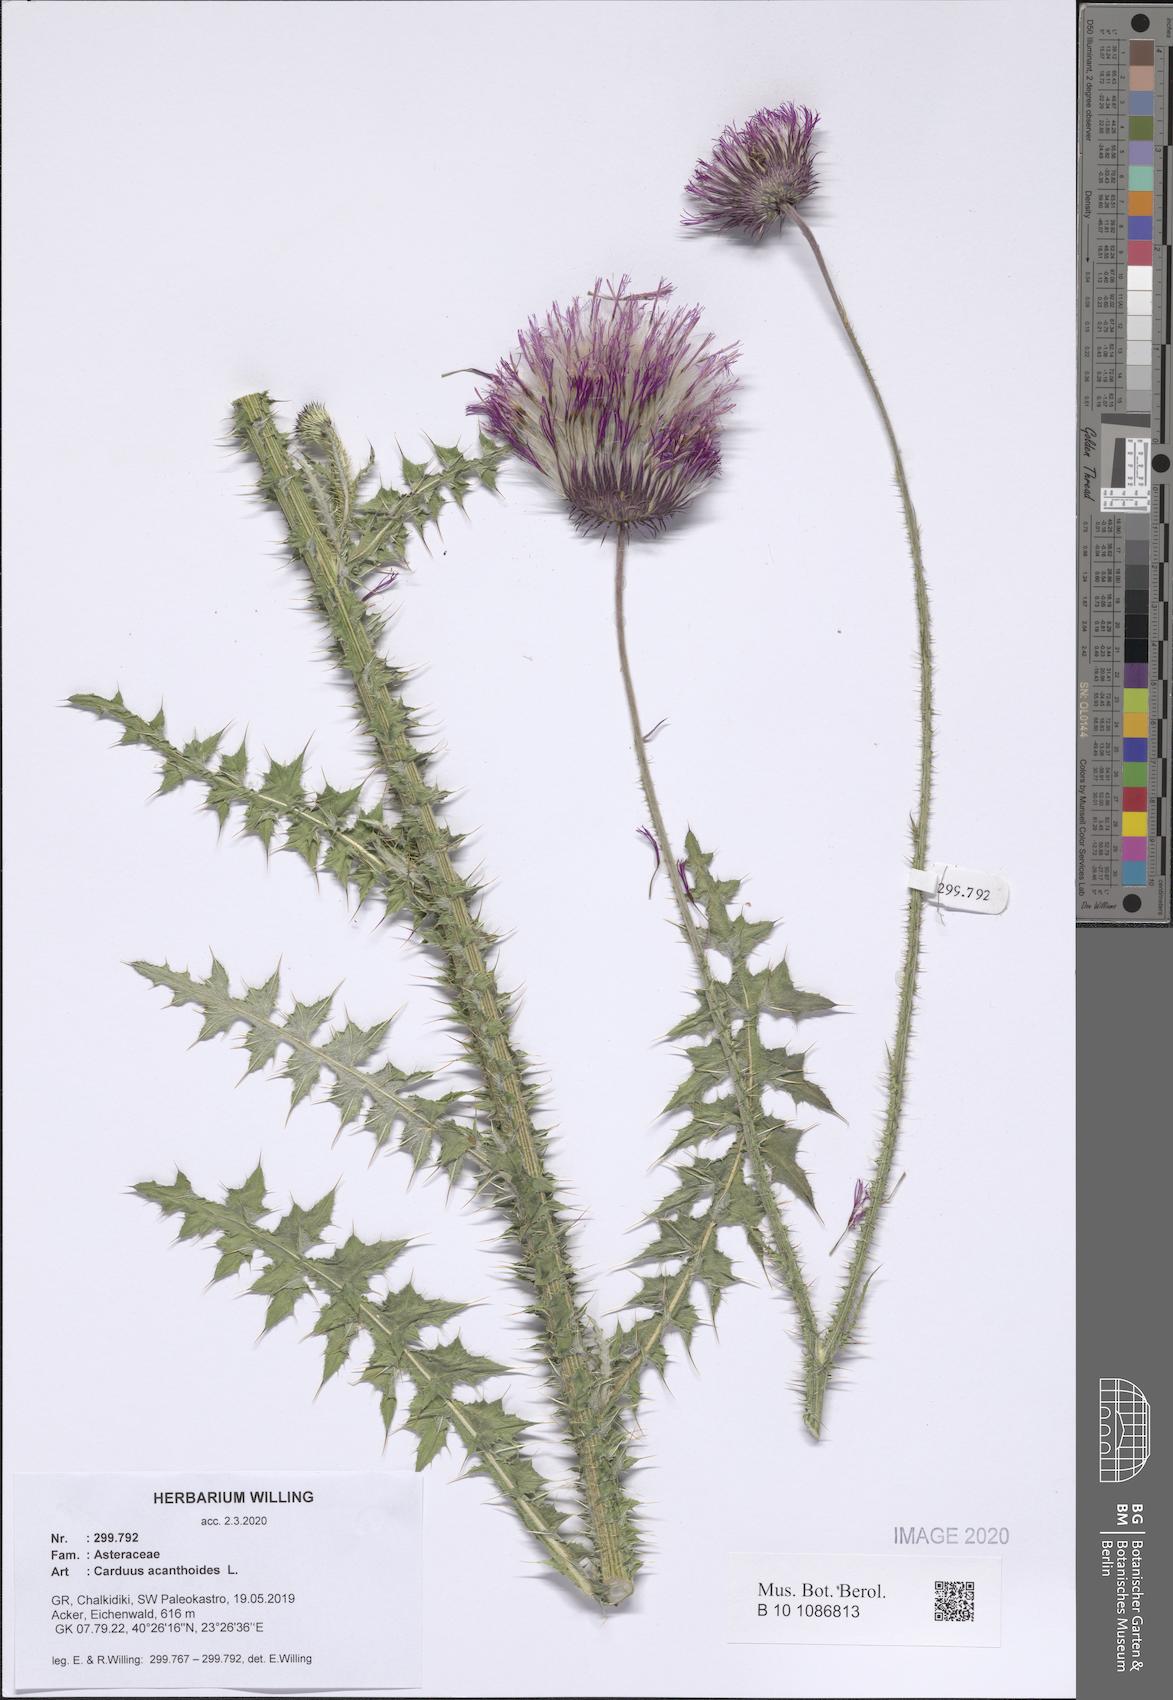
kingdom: Plantae
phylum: Tracheophyta
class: Magnoliopsida
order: Asterales
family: Asteraceae
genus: Carduus
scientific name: Carduus acanthoides
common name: Plumeless thistle
